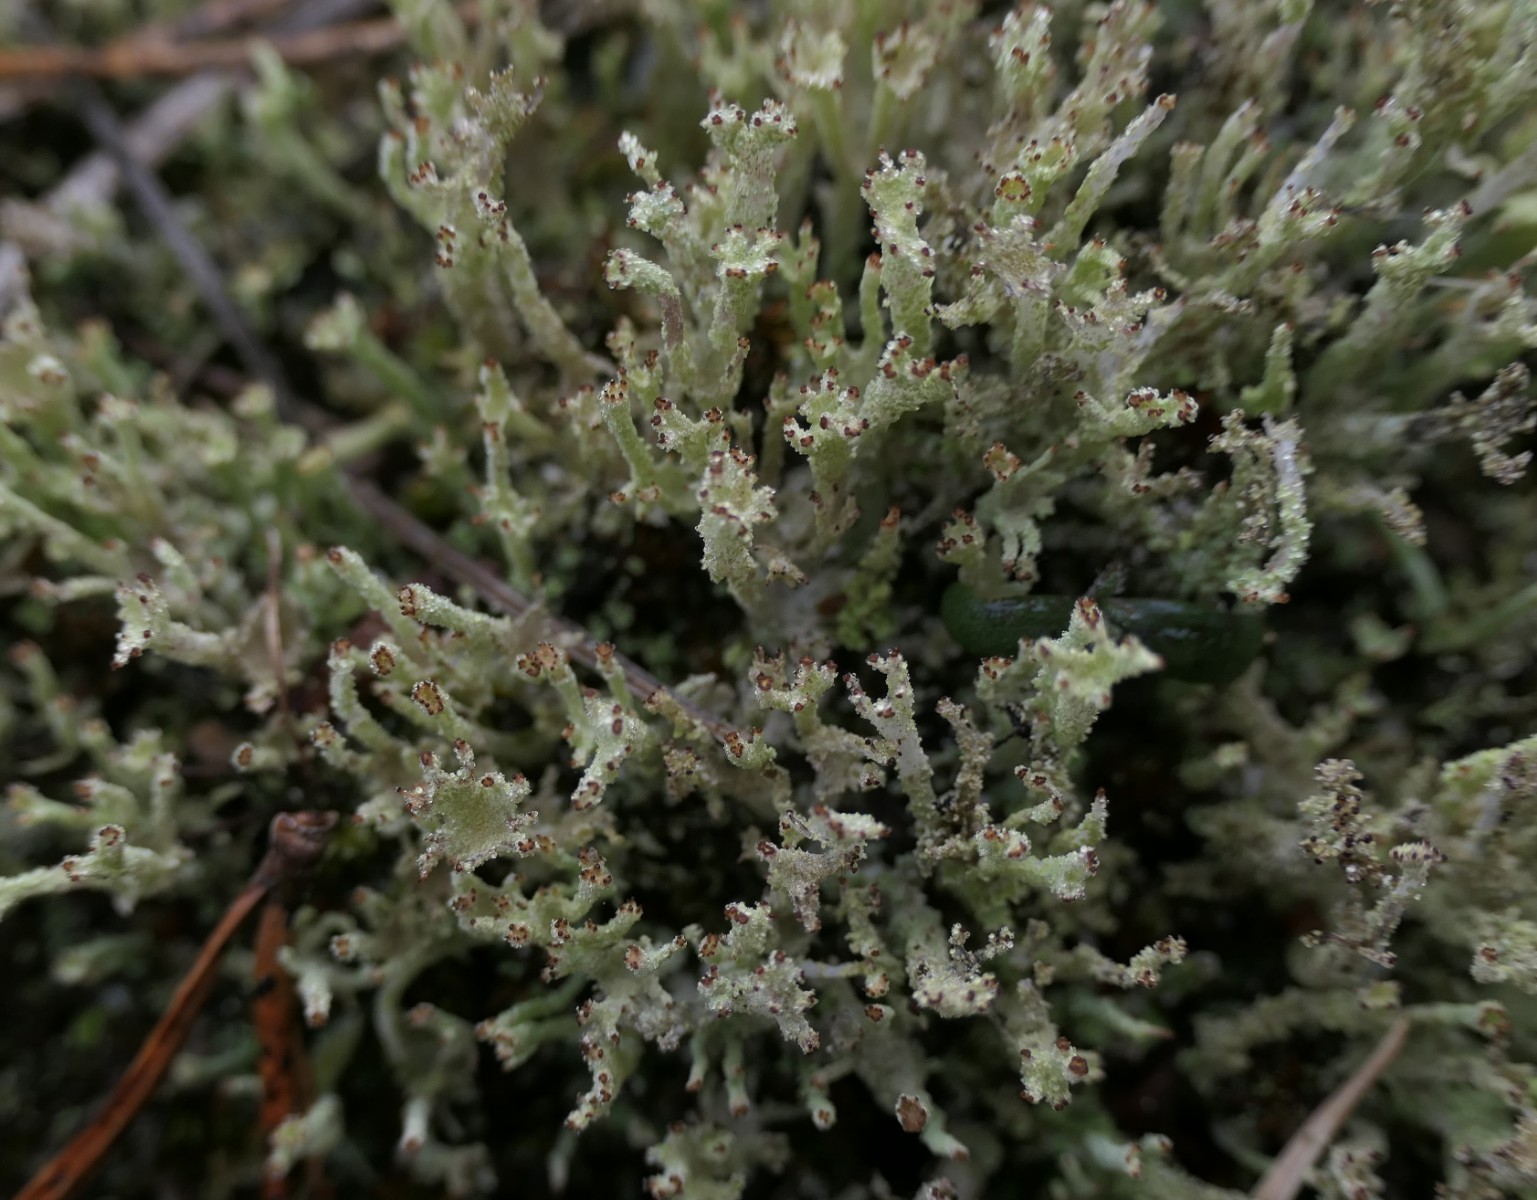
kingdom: Fungi
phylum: Ascomycota
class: Lecanoromycetes
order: Lecanorales
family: Cladoniaceae
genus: Cladonia
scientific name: Cladonia squamosa
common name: skælklædt bægerlav
